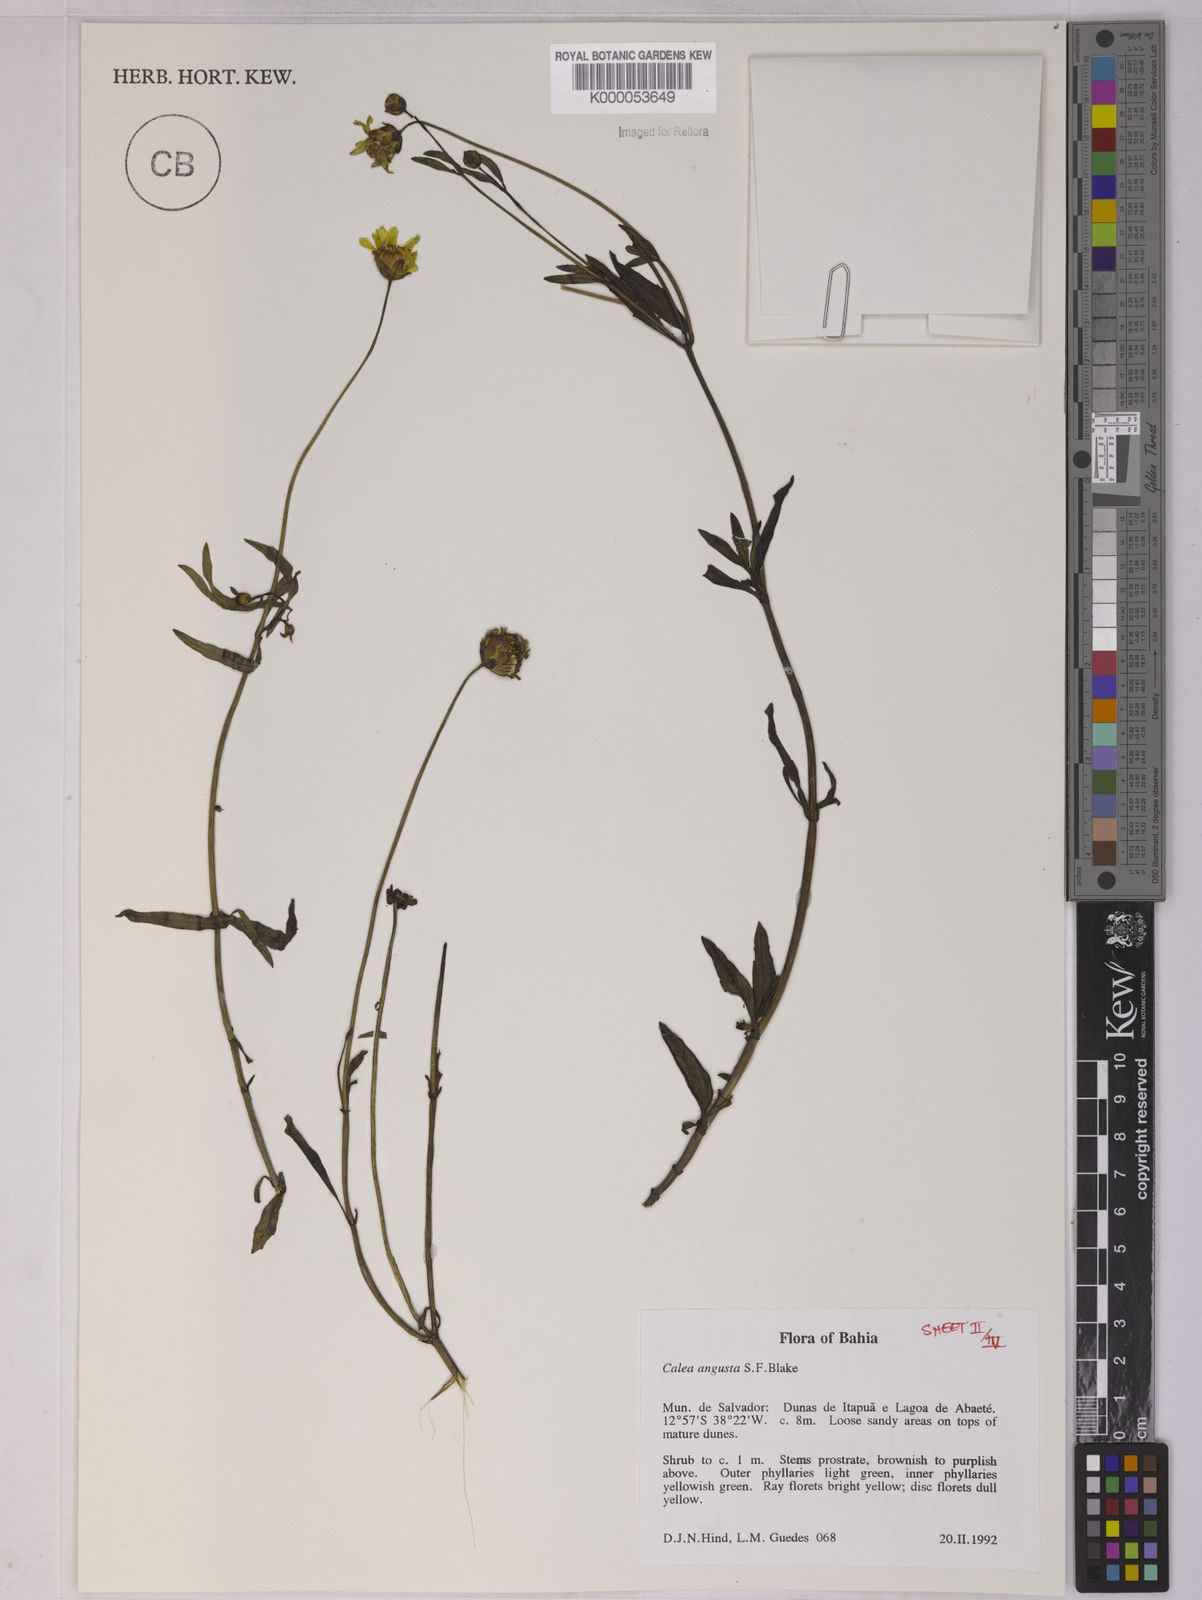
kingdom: Plantae
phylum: Tracheophyta
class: Magnoliopsida
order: Asterales
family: Asteraceae
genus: Calea
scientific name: Calea angusta
